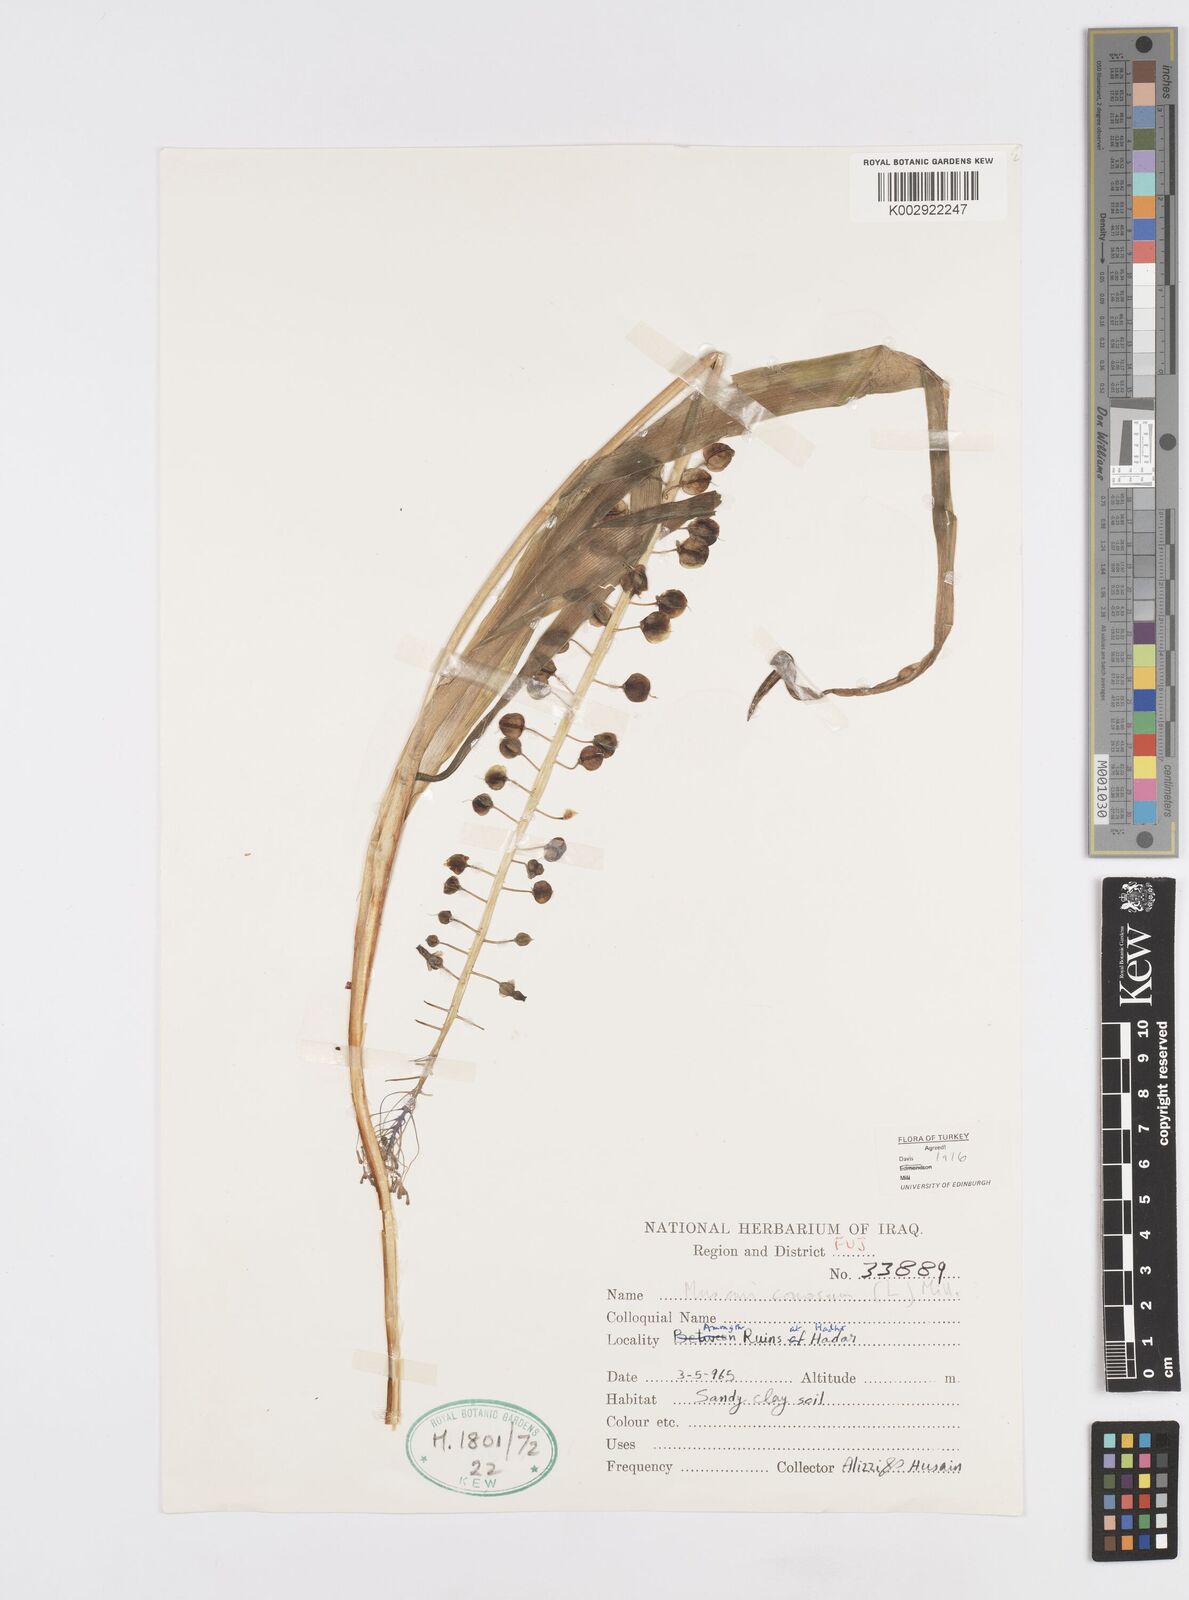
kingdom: Plantae
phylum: Tracheophyta
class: Liliopsida
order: Asparagales
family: Asparagaceae
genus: Muscari
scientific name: Muscari comosum
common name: Tassel hyacinth
